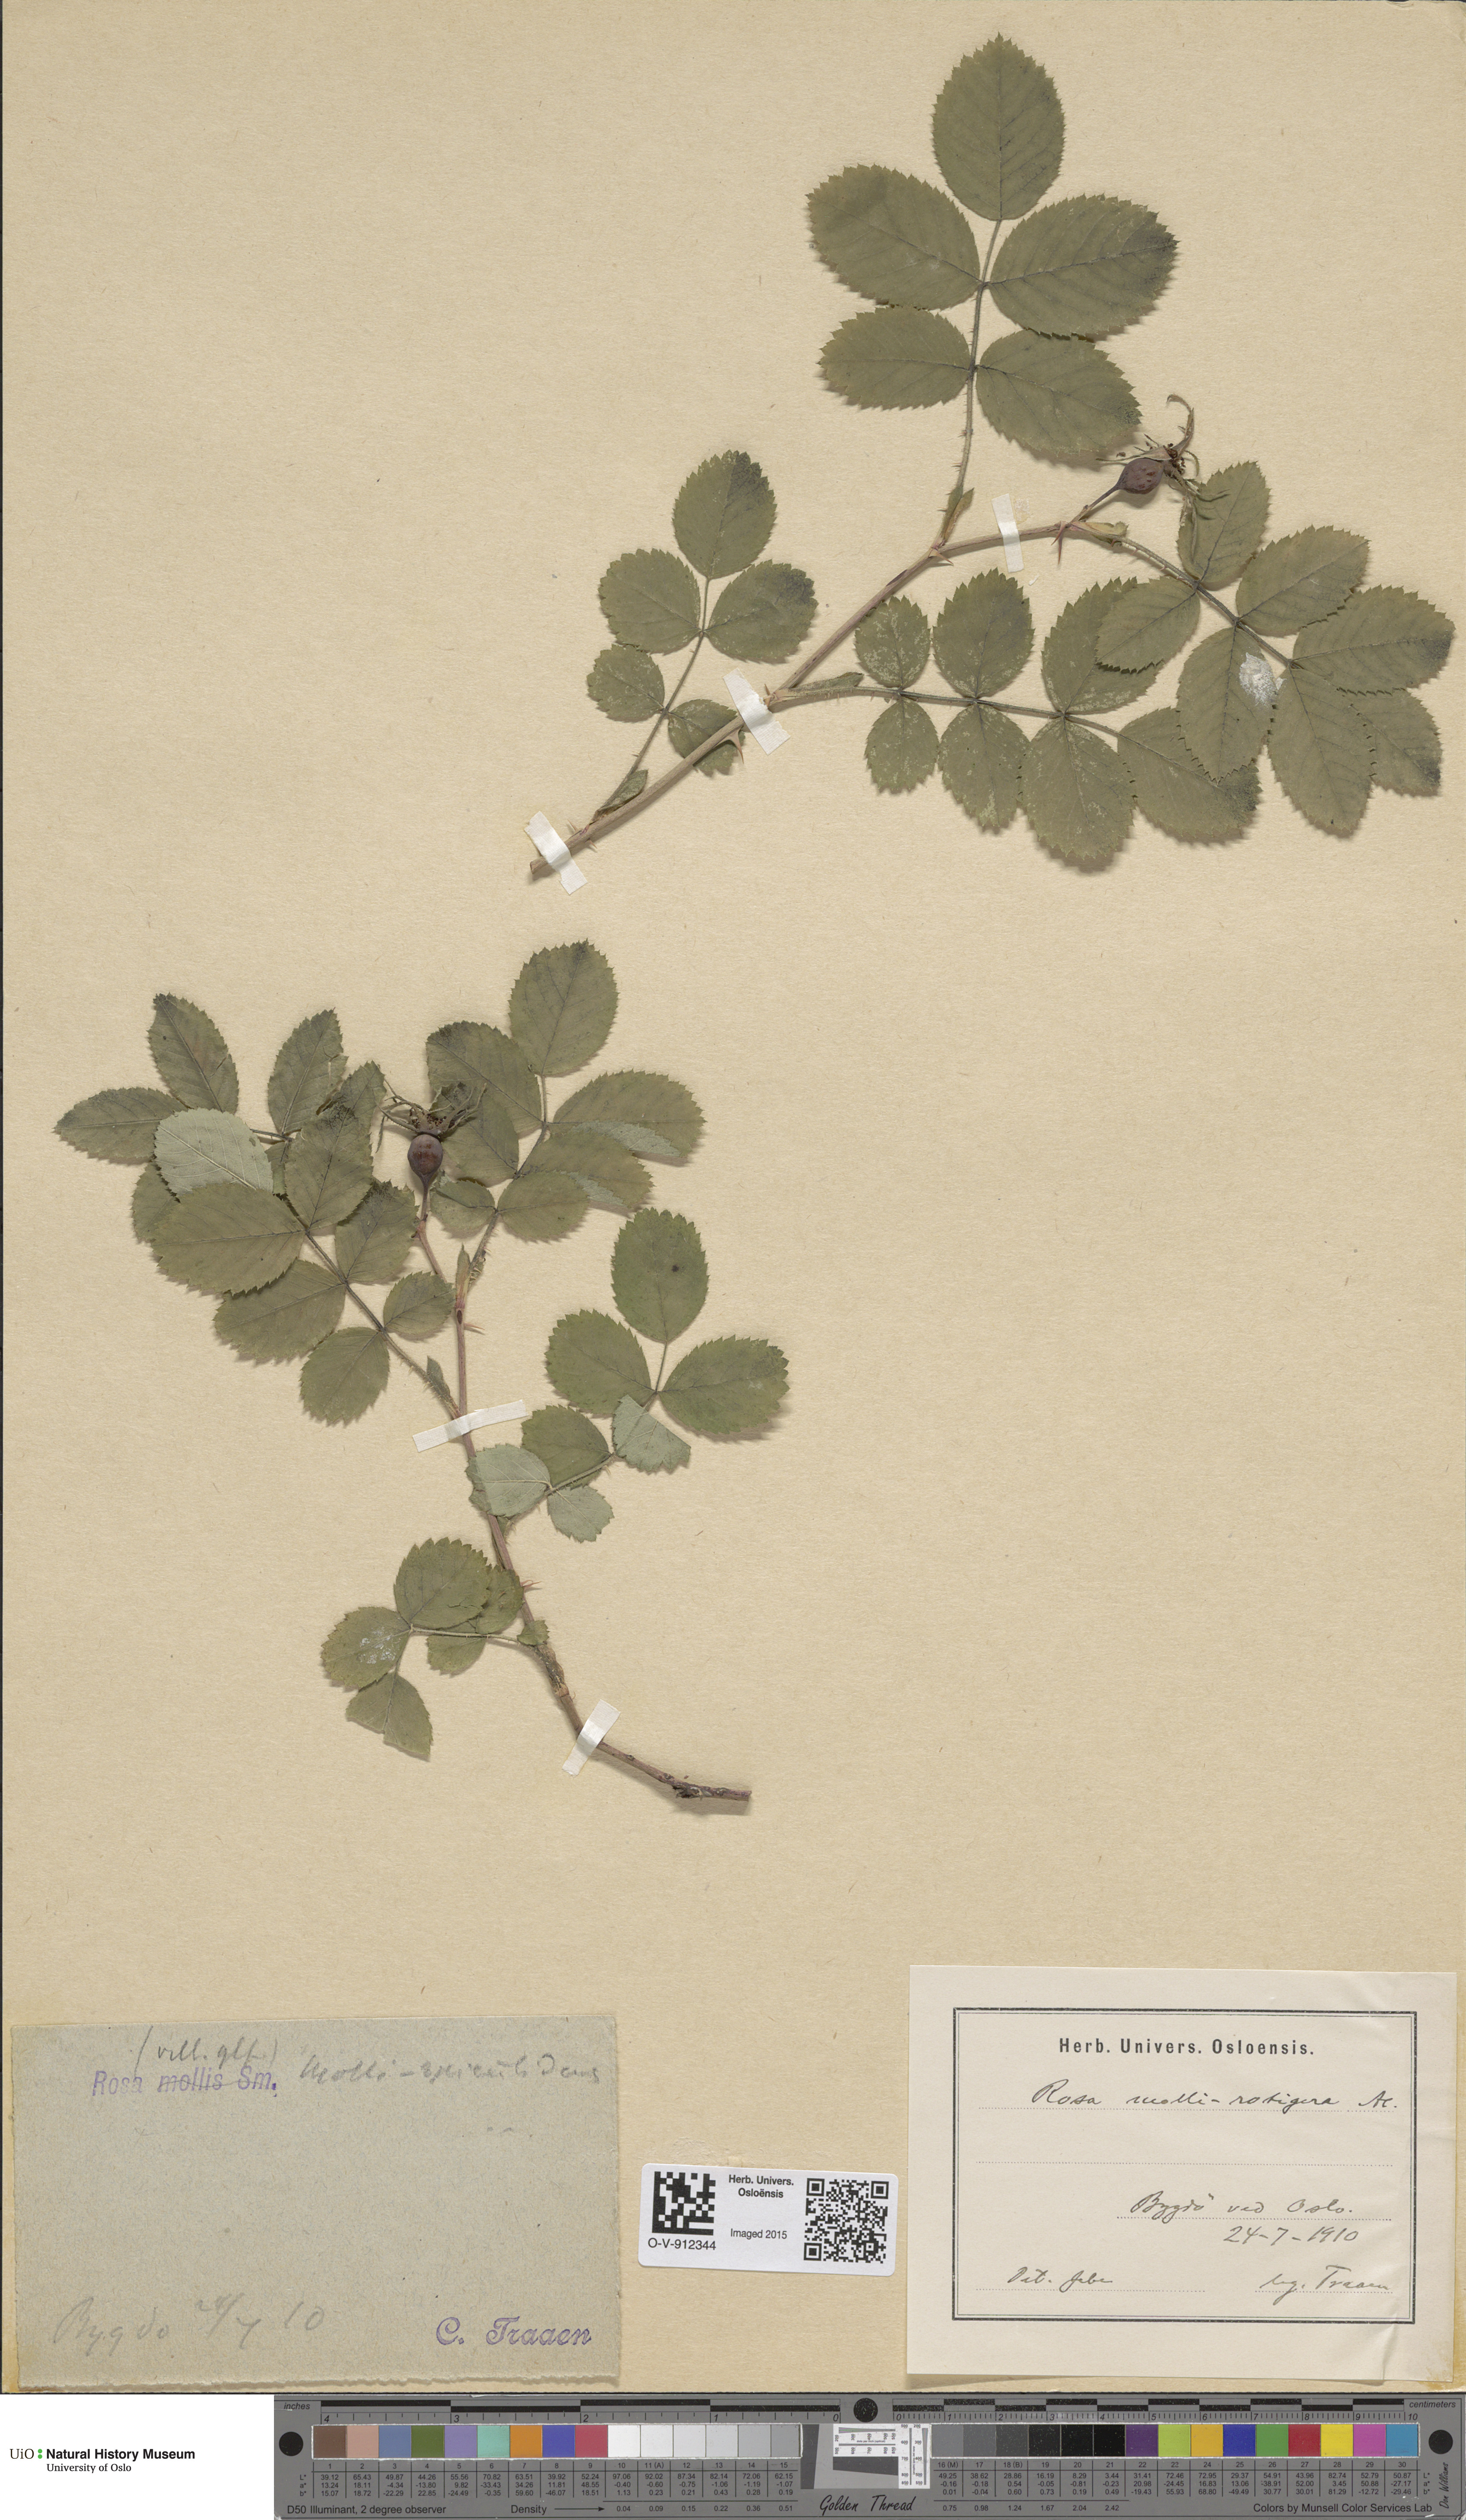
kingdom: Plantae
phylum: Tracheophyta
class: Magnoliopsida
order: Rosales
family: Rosaceae
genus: Rosa
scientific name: Rosa mollis
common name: Rose
